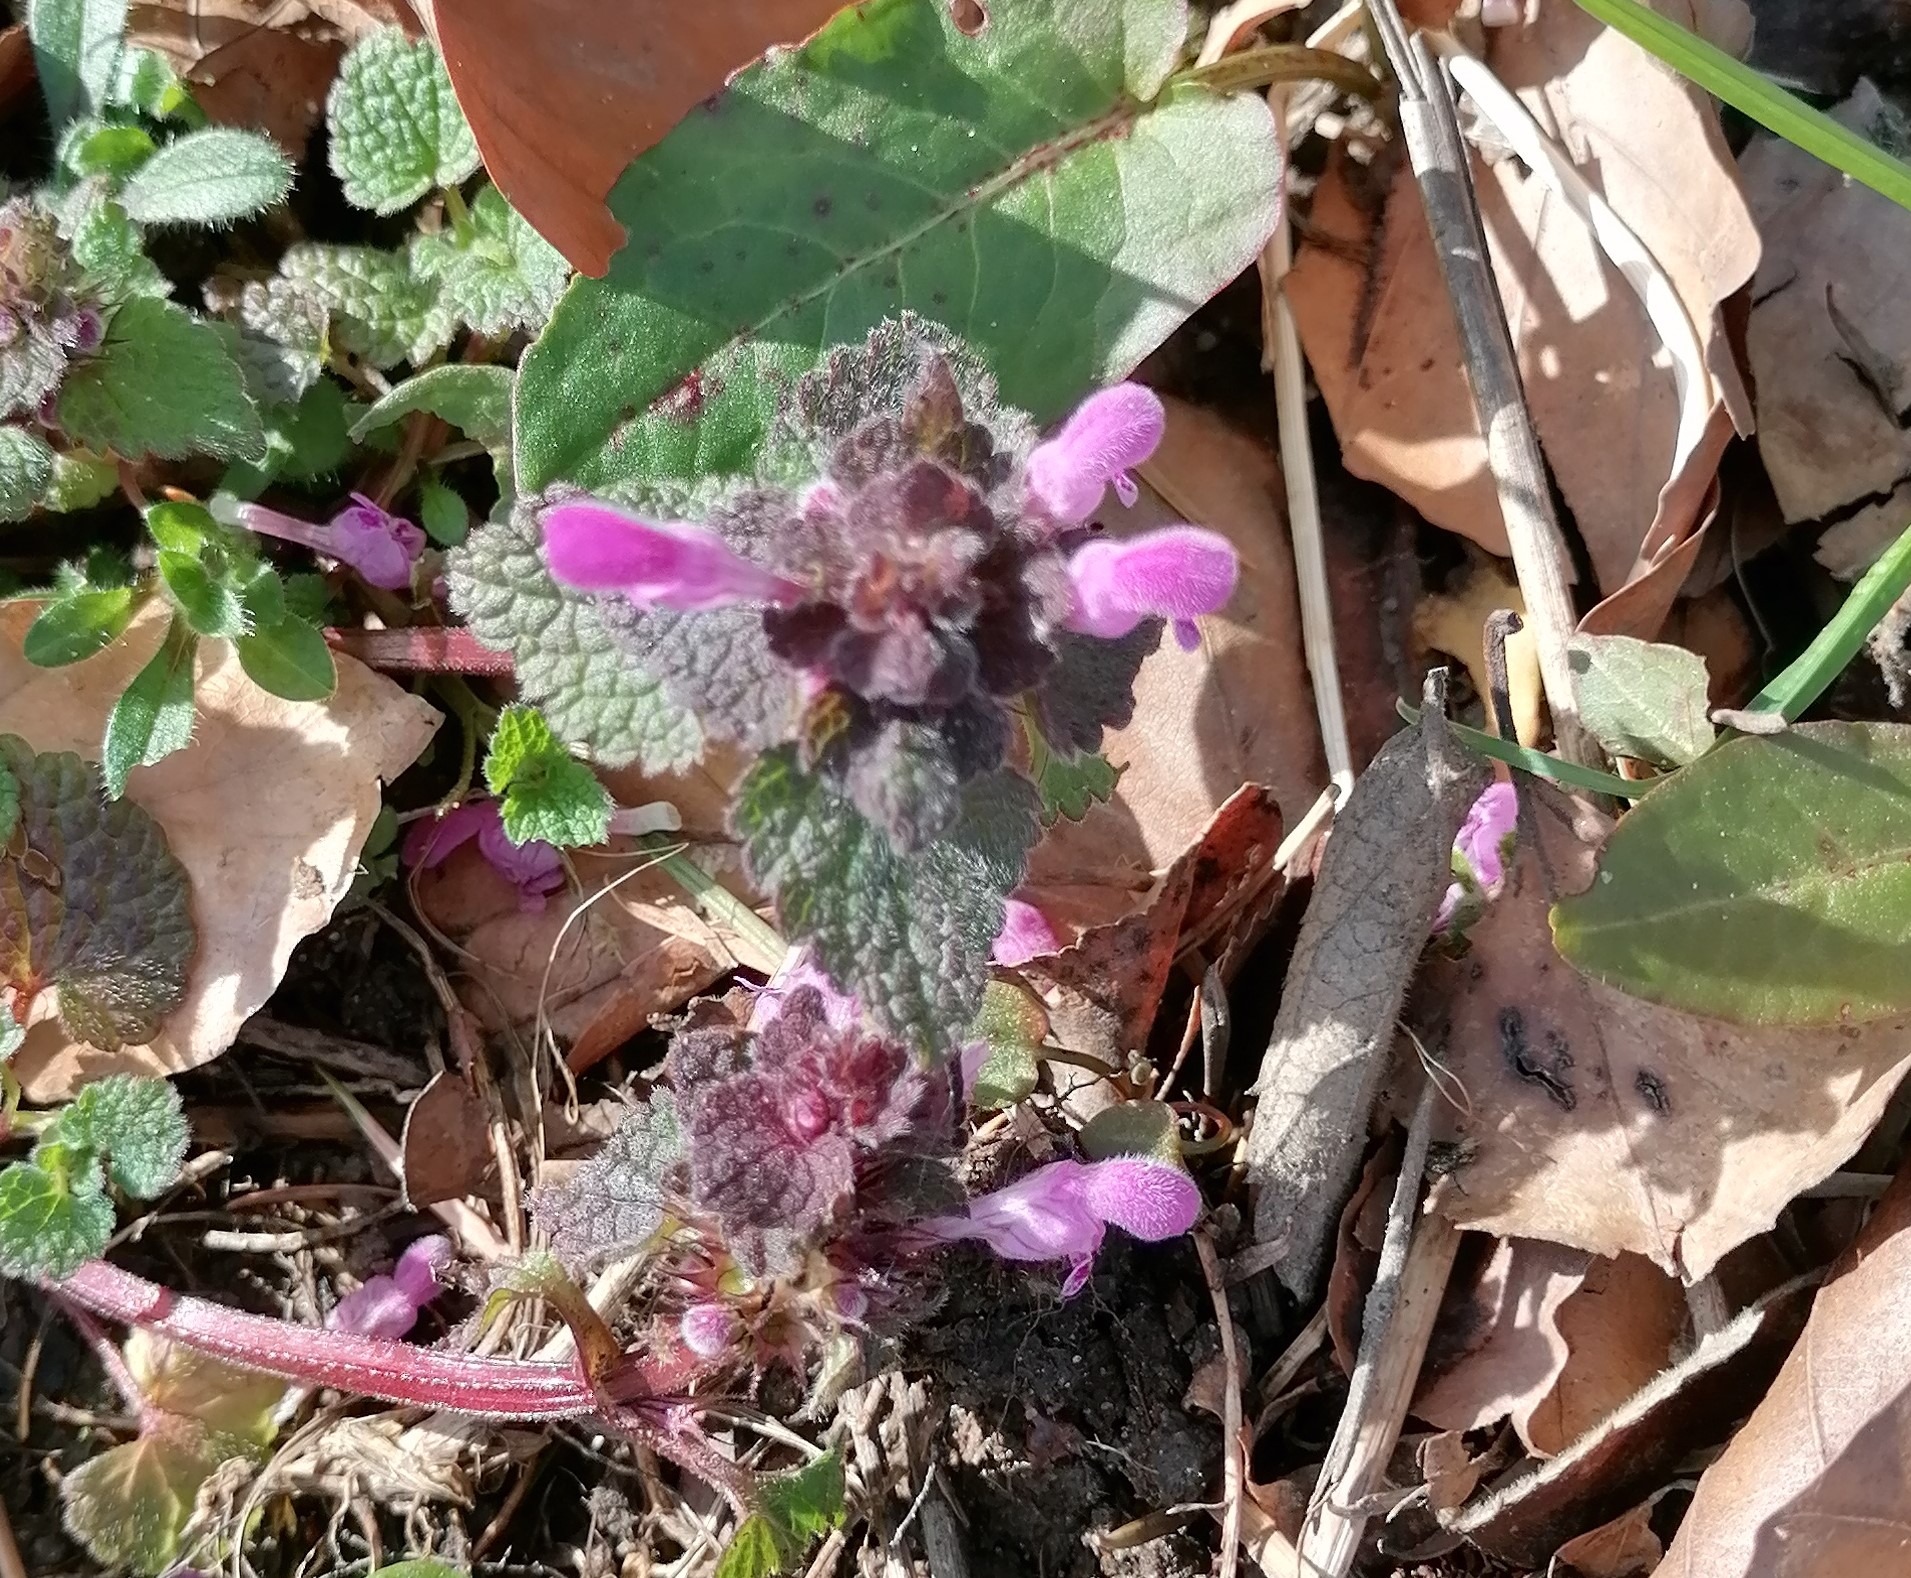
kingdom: Plantae
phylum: Tracheophyta
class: Magnoliopsida
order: Lamiales
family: Lamiaceae
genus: Lamium
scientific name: Lamium purpureum
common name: Rød tvetand
